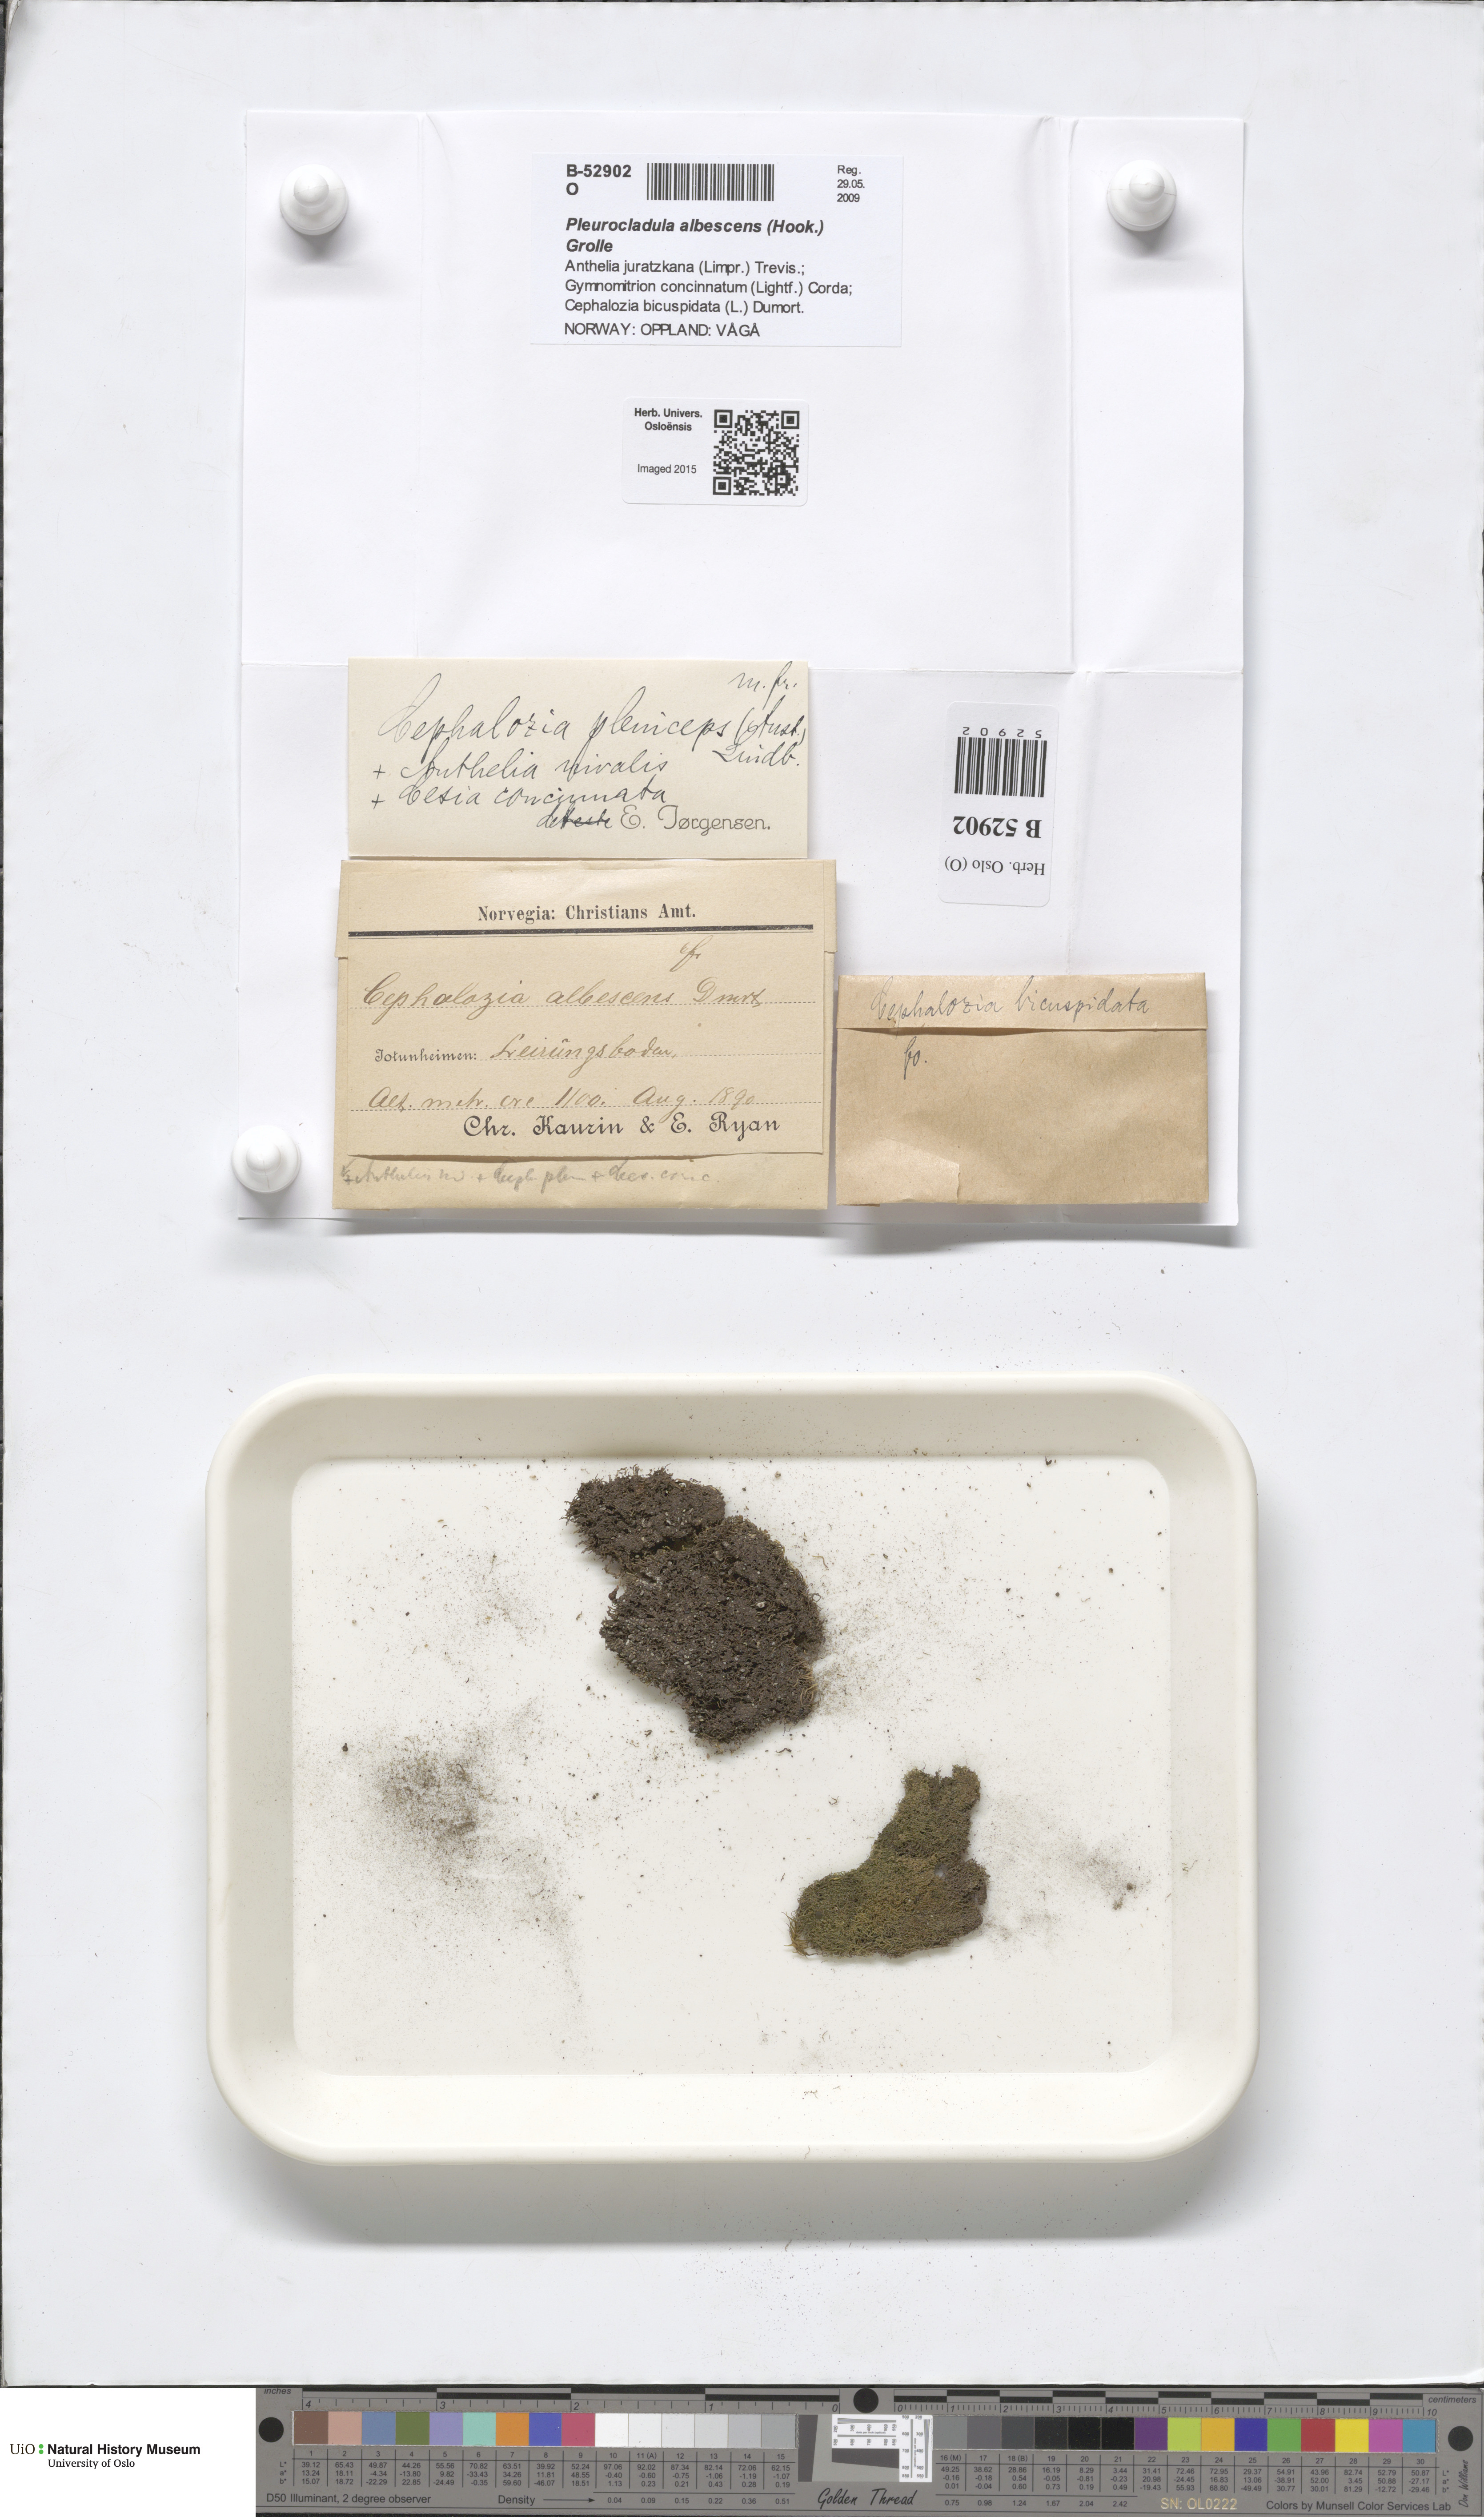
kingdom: Plantae
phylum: Marchantiophyta
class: Jungermanniopsida
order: Jungermanniales
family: Cephaloziaceae
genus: Fuscocephaloziopsis
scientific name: Fuscocephaloziopsis pleniceps
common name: Blunt pincerwort
